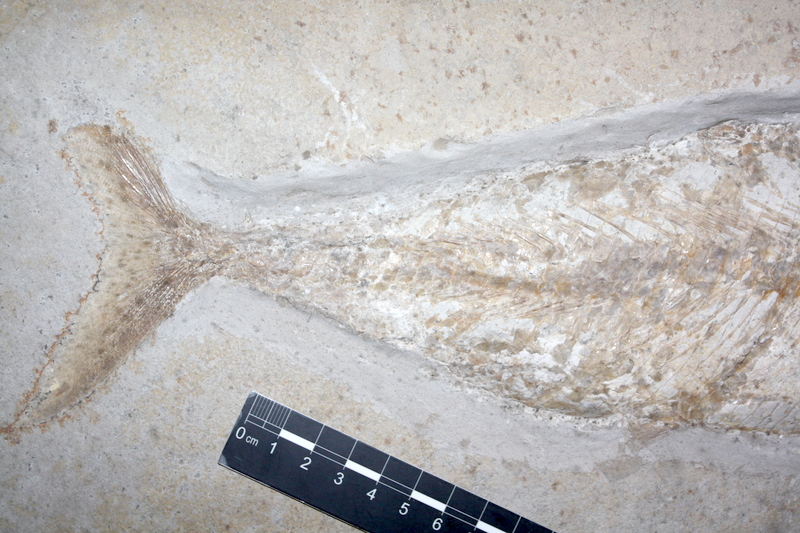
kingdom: Animalia
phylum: Chordata
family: Ankylophoridae
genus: Siemensichthys
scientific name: Siemensichthys macrocephalus
